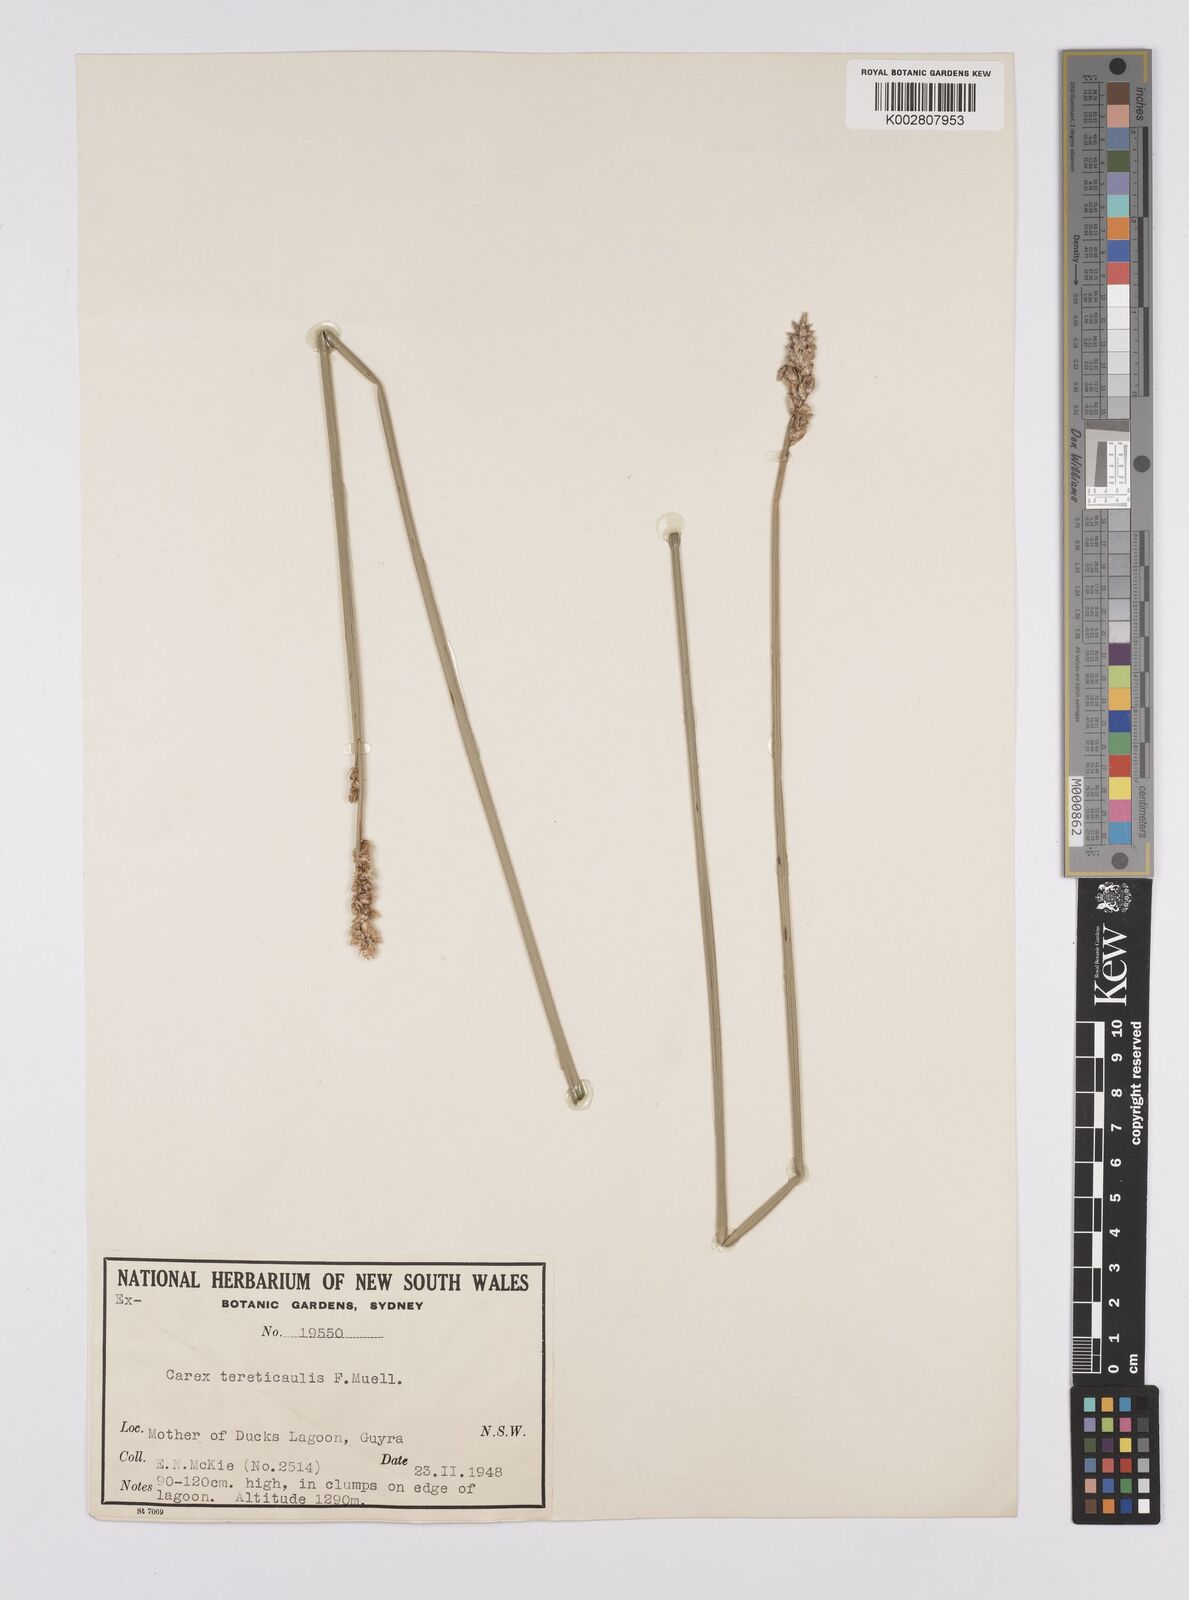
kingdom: Plantae
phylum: Tracheophyta
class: Liliopsida
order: Poales
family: Cyperaceae
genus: Carex
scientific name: Carex tereticaulis
